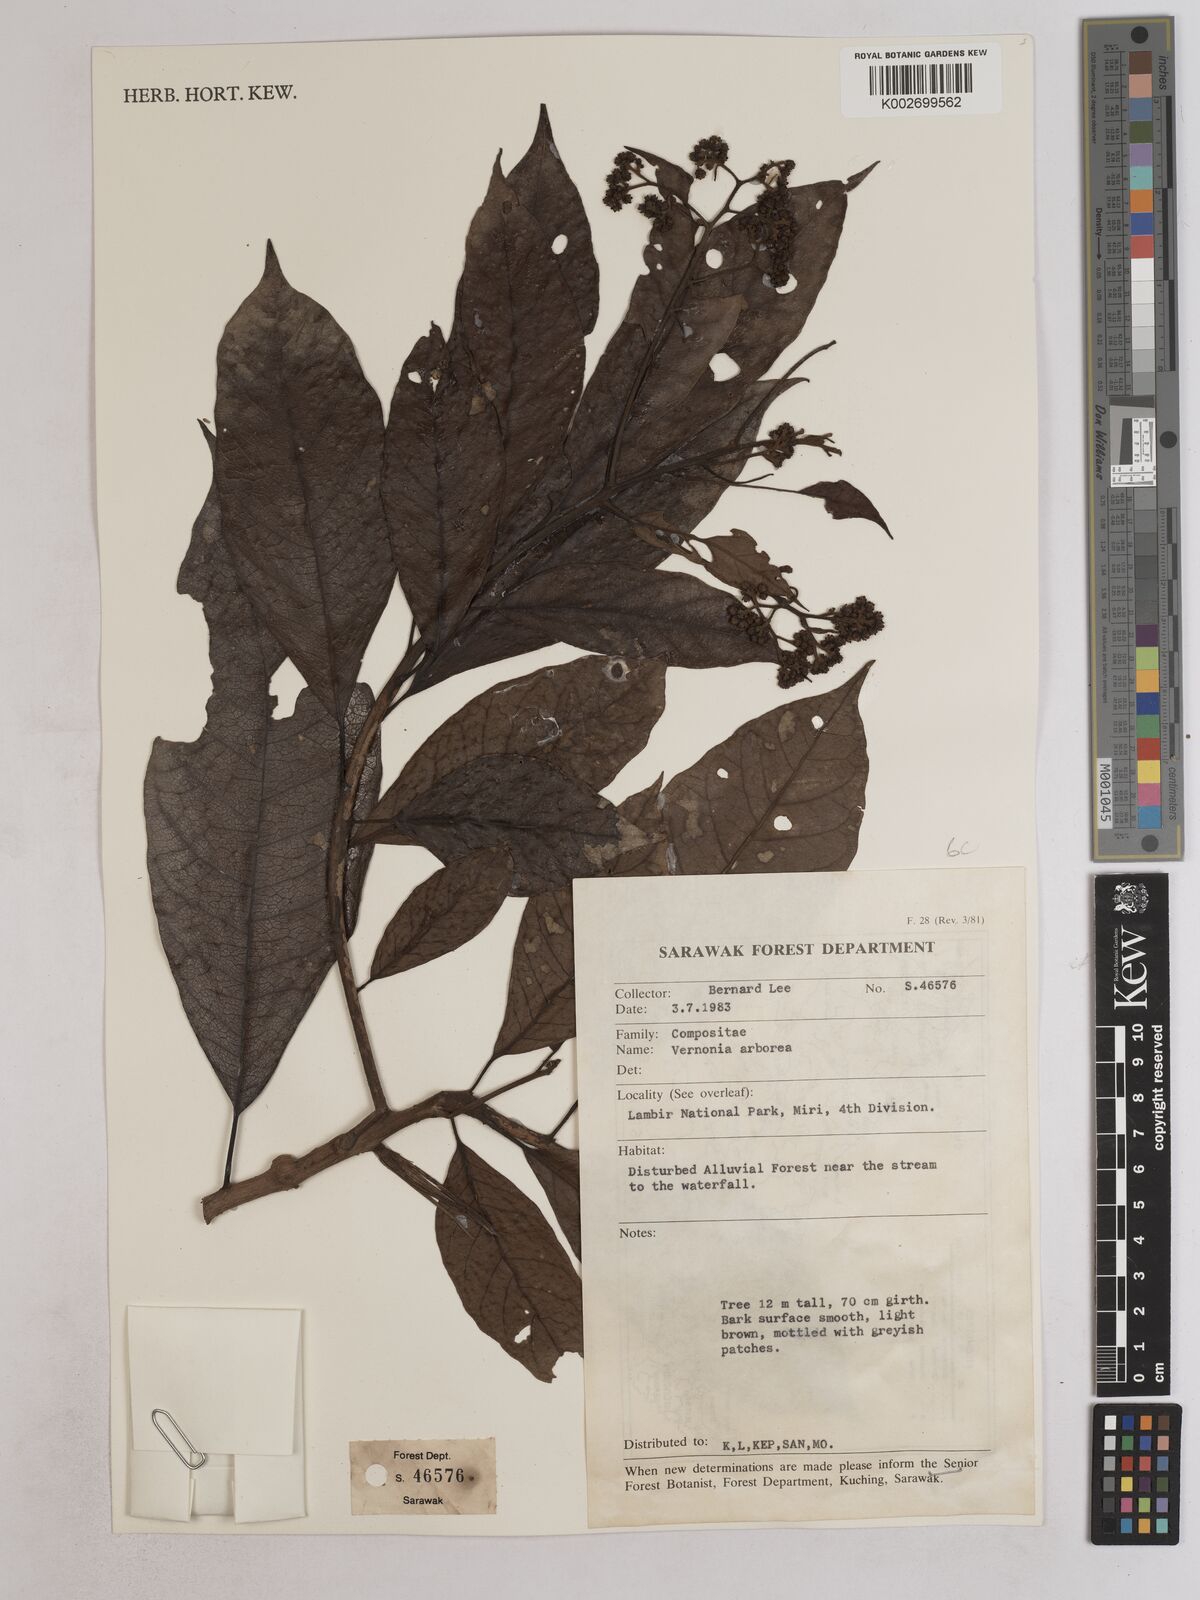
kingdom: Plantae
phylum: Tracheophyta
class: Magnoliopsida
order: Asterales
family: Asteraceae
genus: Strobocalyx
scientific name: Strobocalyx arborea
